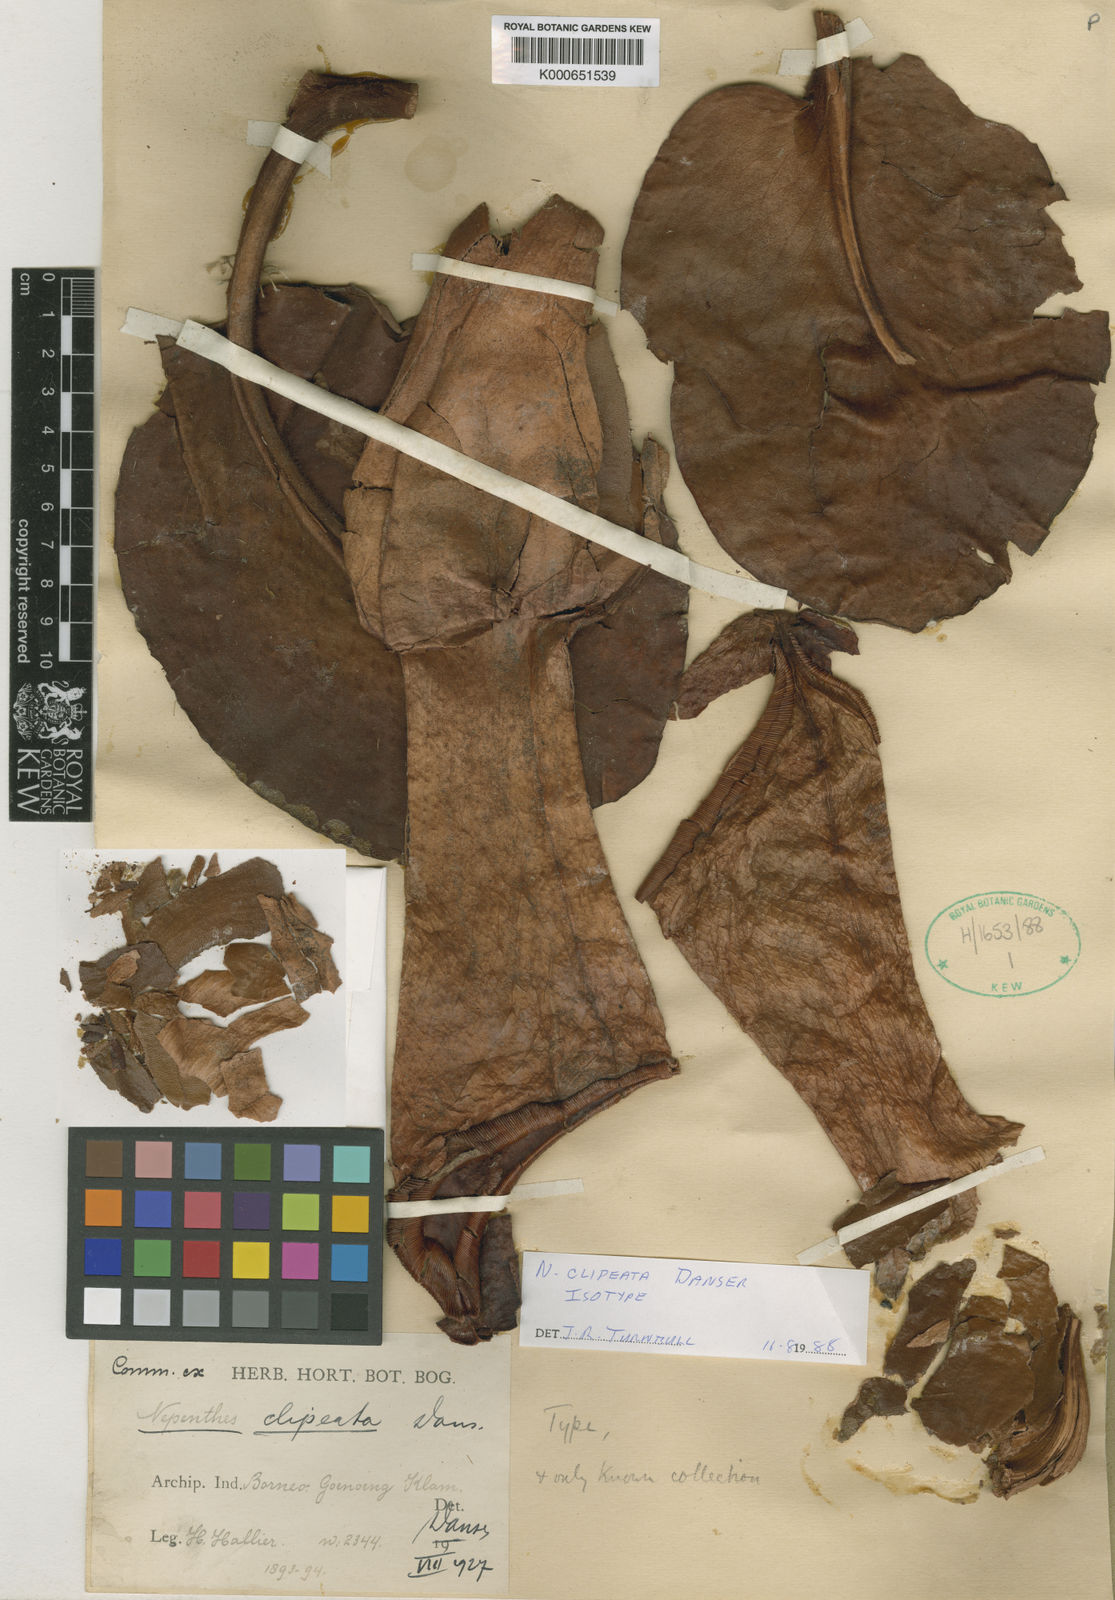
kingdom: Plantae
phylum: Tracheophyta
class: Magnoliopsida
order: Caryophyllales
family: Nepenthaceae
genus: Nepenthes
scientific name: Nepenthes clipeata
